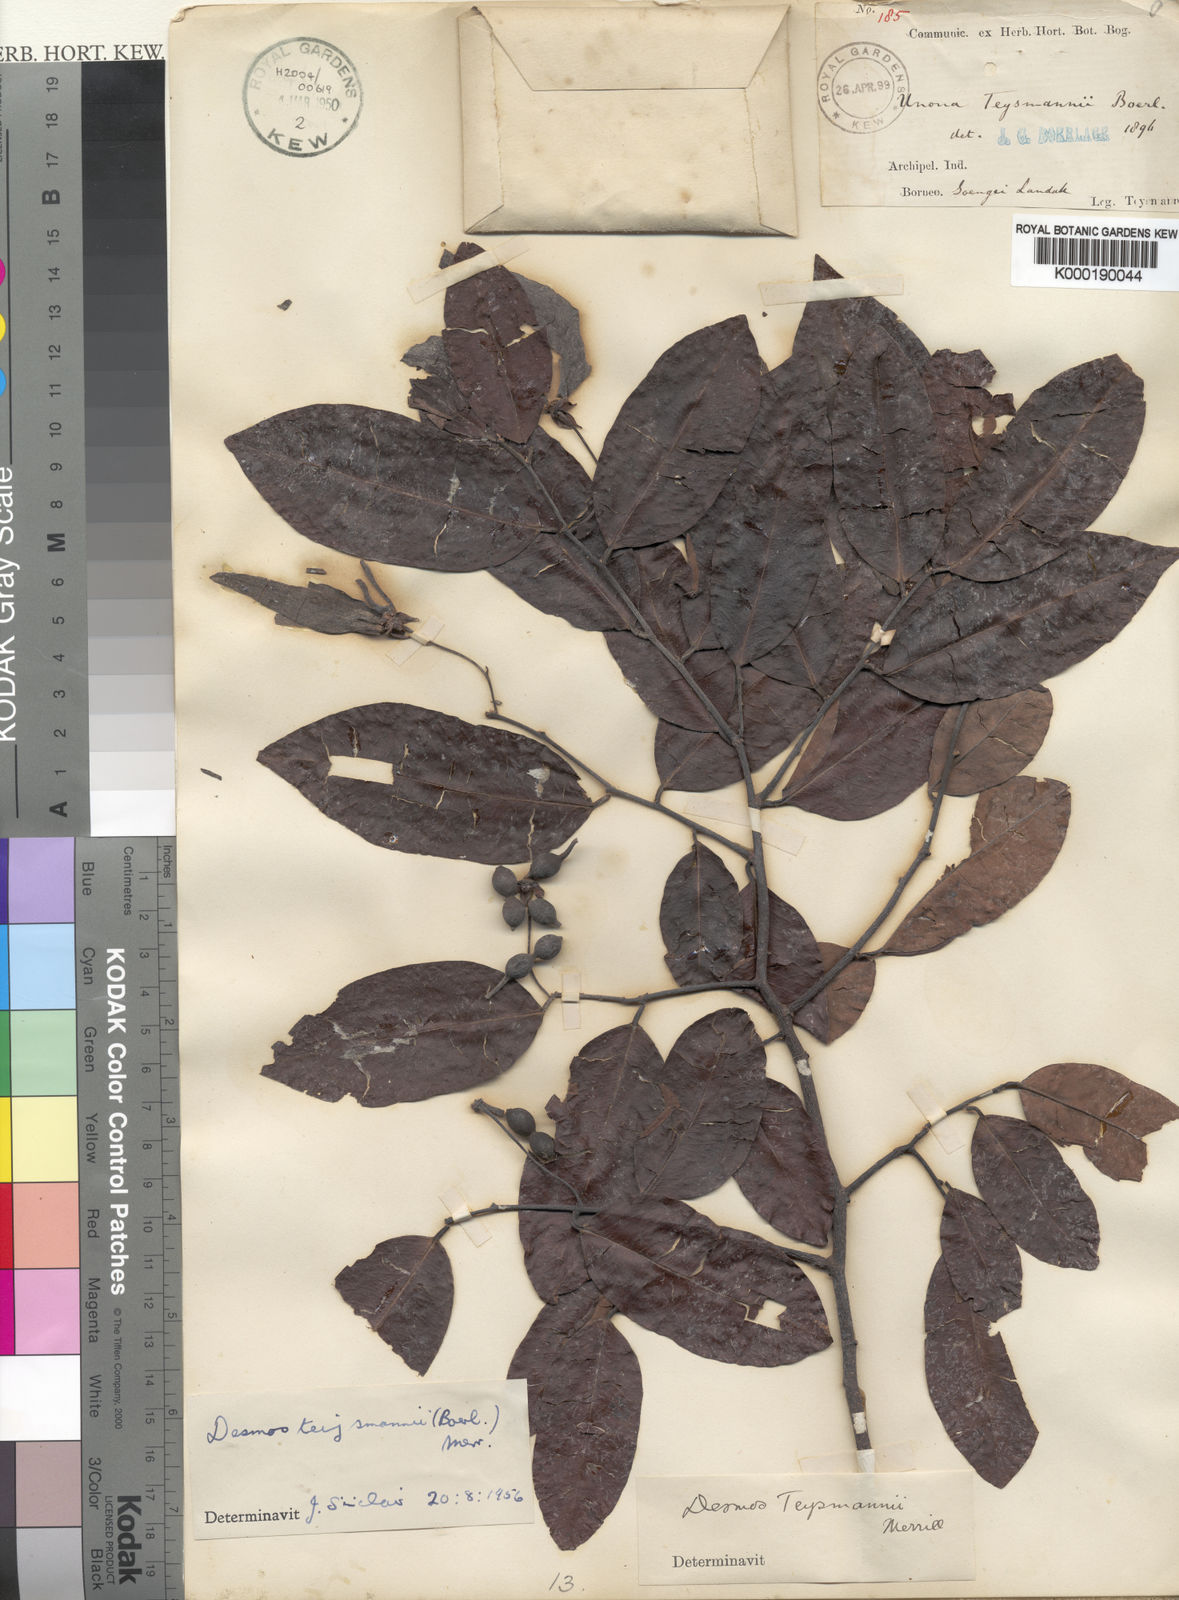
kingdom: Plantae
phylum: Tracheophyta
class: Magnoliopsida
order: Magnoliales
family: Annonaceae
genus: Desmos
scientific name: Desmos acutus
